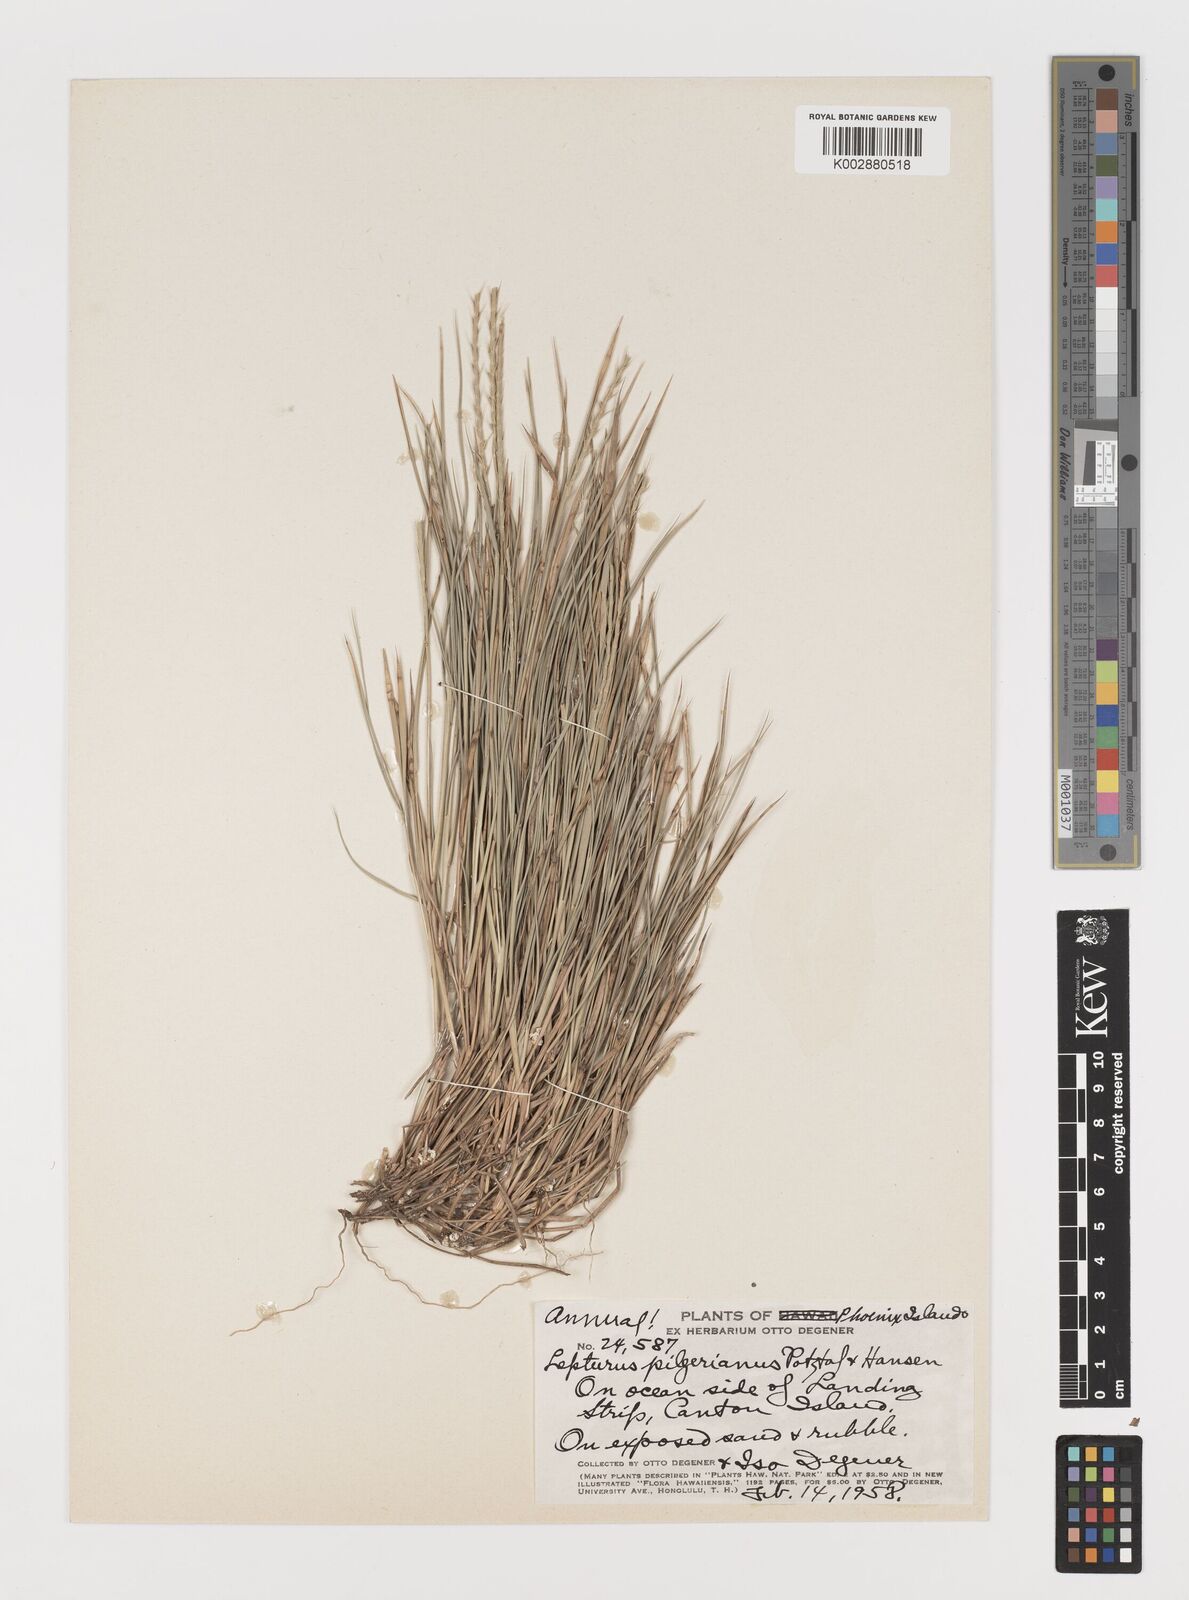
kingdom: Plantae
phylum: Tracheophyta
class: Liliopsida
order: Poales
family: Poaceae
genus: Lepturus
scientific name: Lepturus repens
